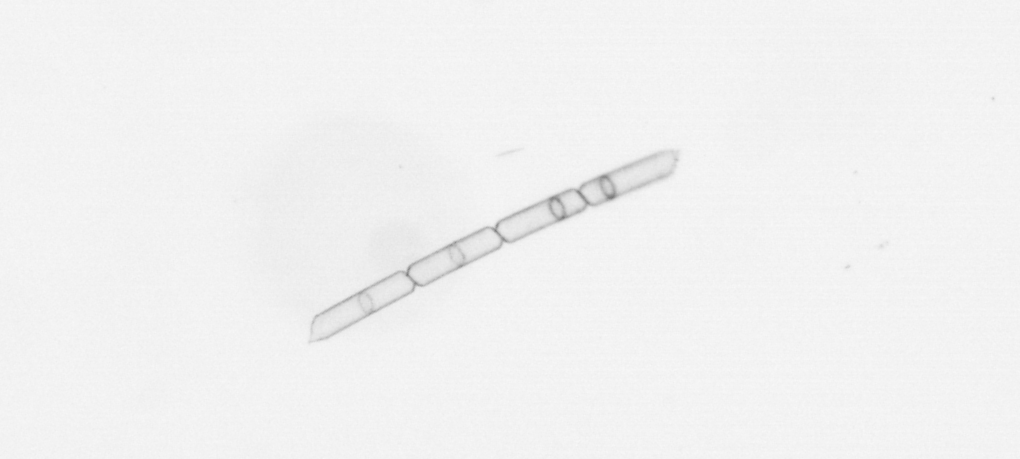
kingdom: Chromista
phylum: Ochrophyta
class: Bacillariophyceae
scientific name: Bacillariophyceae
